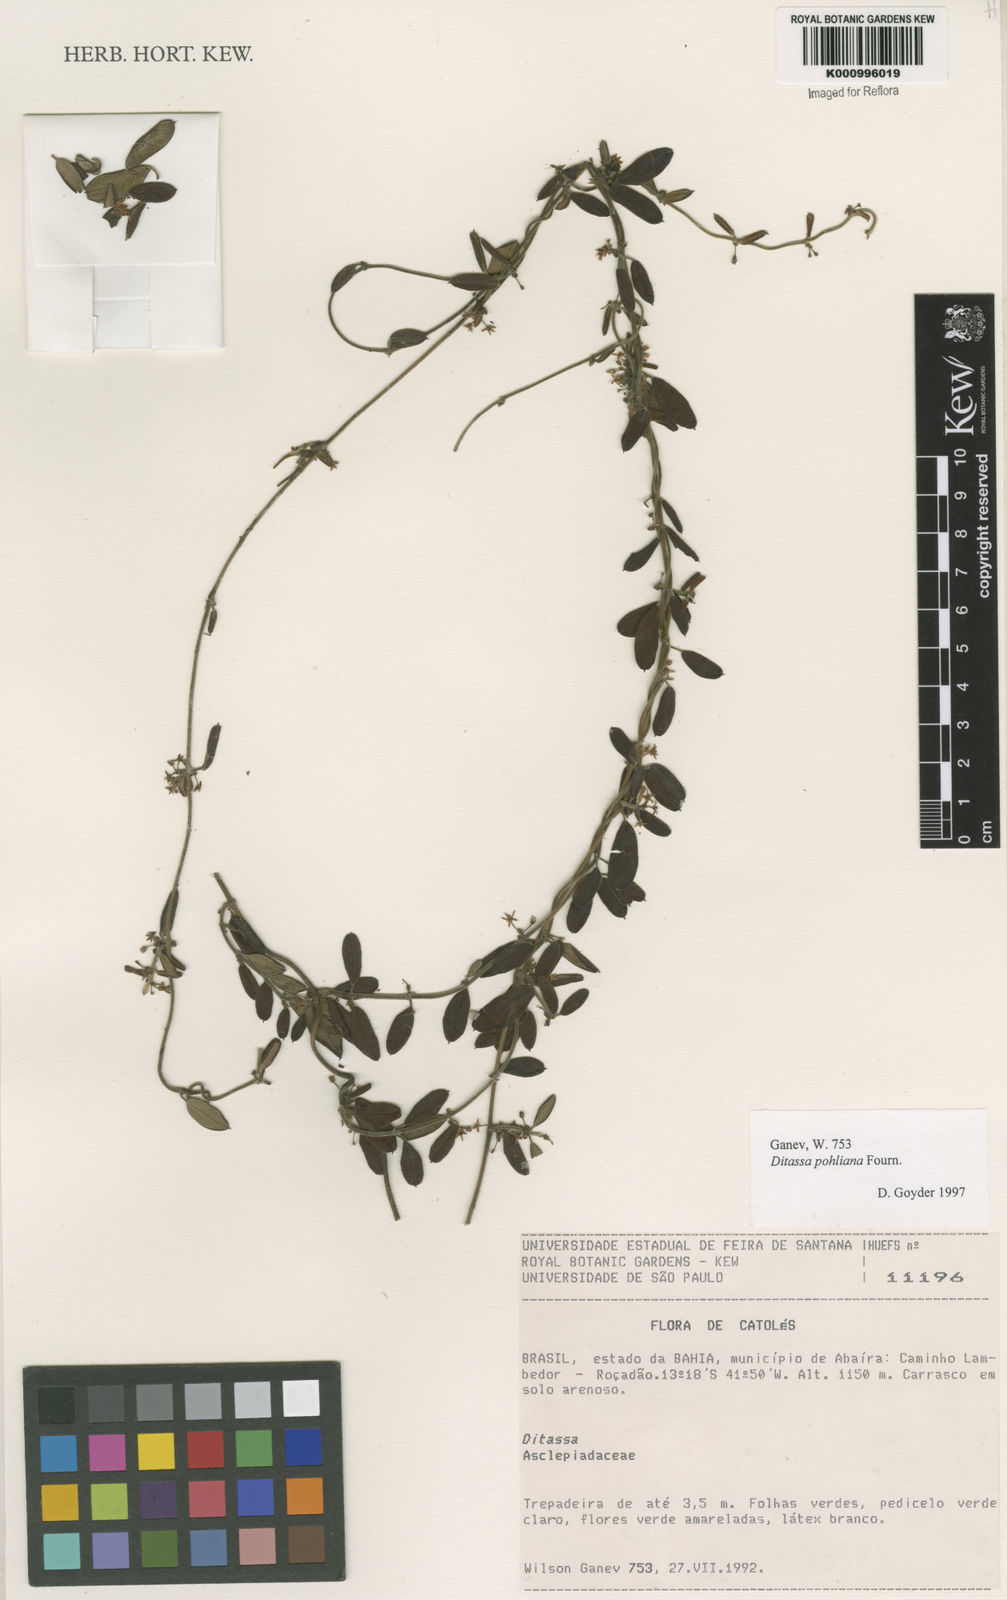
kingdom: Plantae
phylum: Tracheophyta
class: Magnoliopsida
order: Gentianales
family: Apocynaceae
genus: Ditassa
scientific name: Ditassa pohliana
